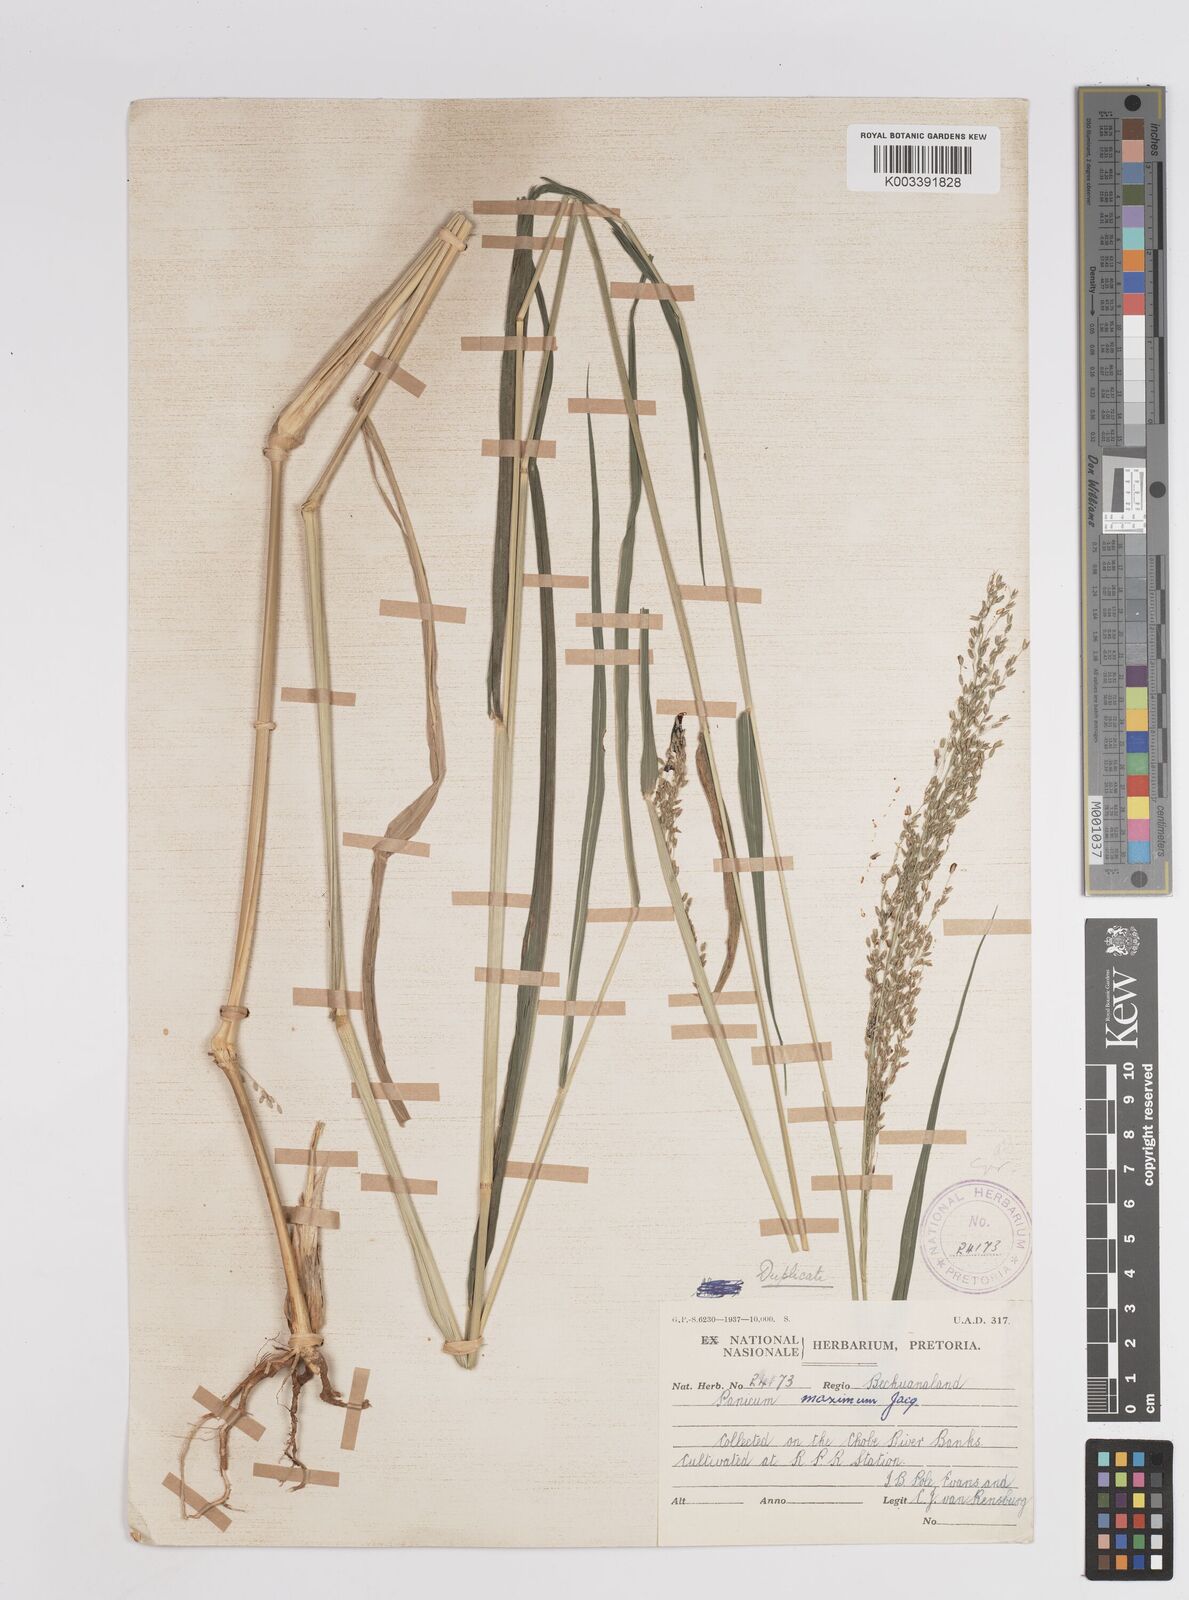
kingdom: Plantae
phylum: Tracheophyta
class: Liliopsida
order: Poales
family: Poaceae
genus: Megathyrsus
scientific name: Megathyrsus maximus
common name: Guineagrass
